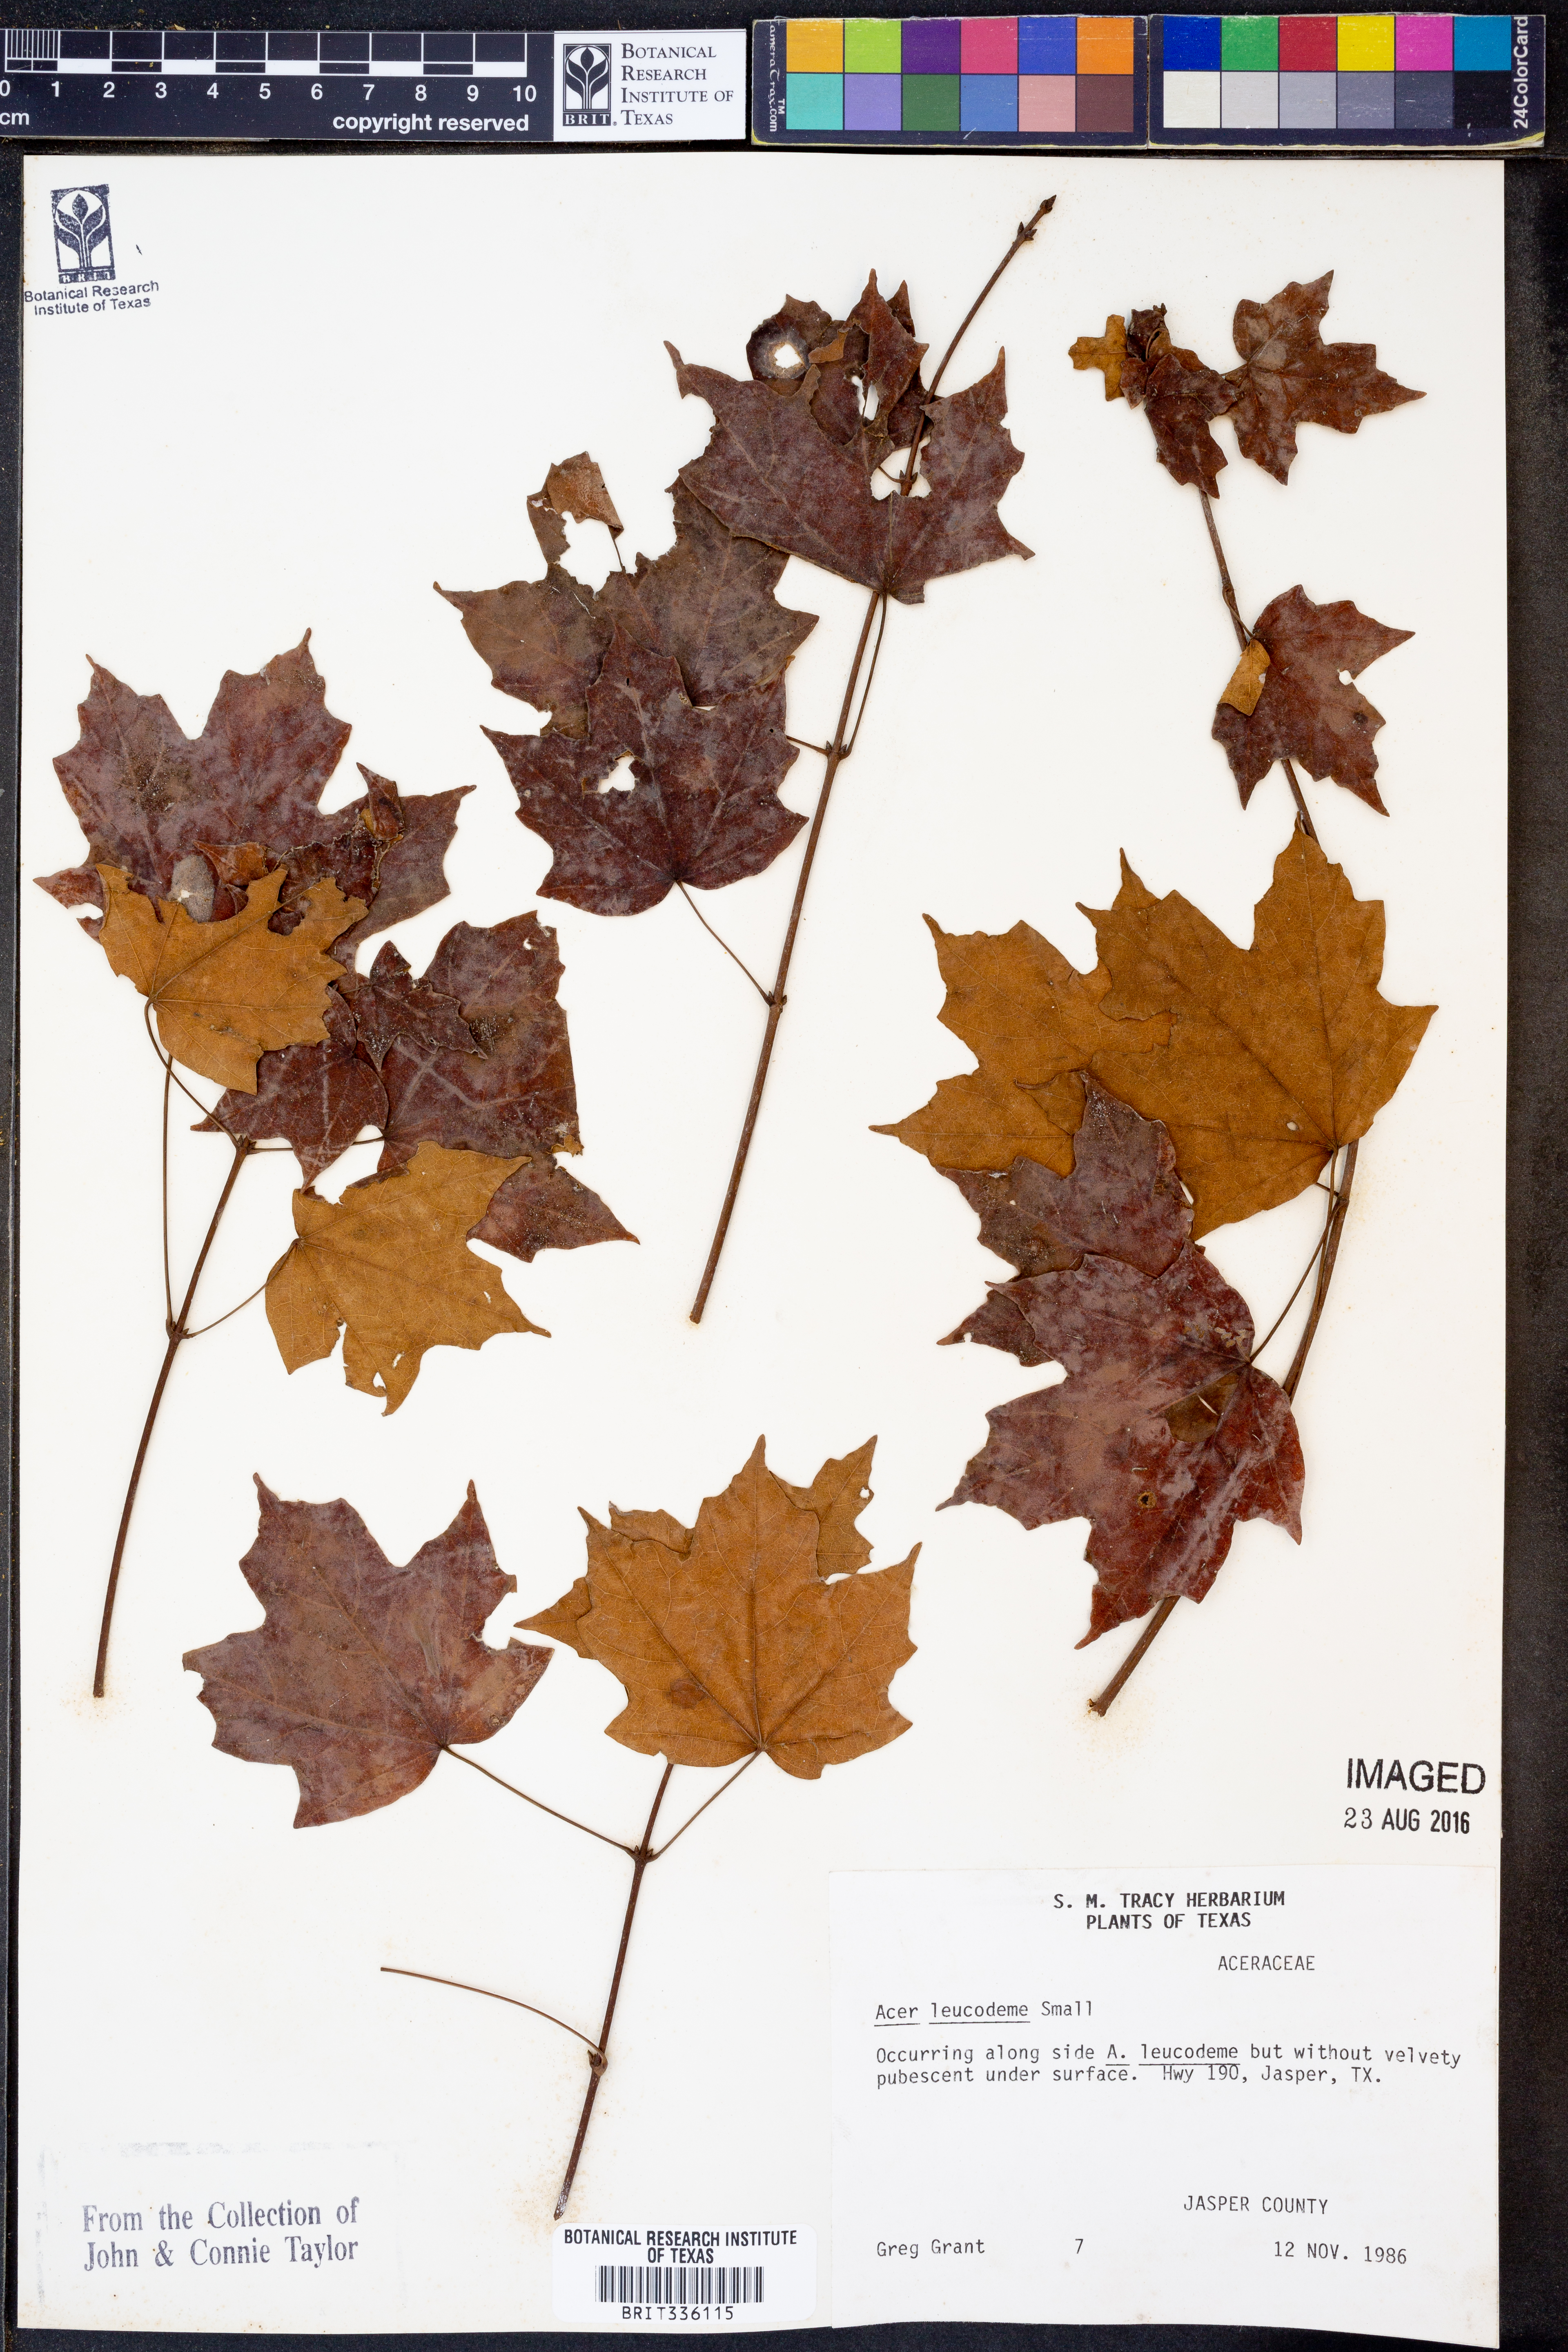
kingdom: Plantae
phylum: Tracheophyta
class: Magnoliopsida
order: Sapindales
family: Sapindaceae
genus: Acer
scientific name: Acer leucoderme
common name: Chalk maple
